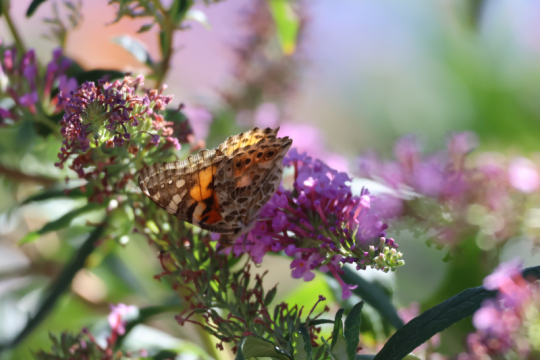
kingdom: Animalia
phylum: Arthropoda
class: Insecta
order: Lepidoptera
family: Nymphalidae
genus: Vanessa
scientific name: Vanessa cardui
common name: Painted Lady
